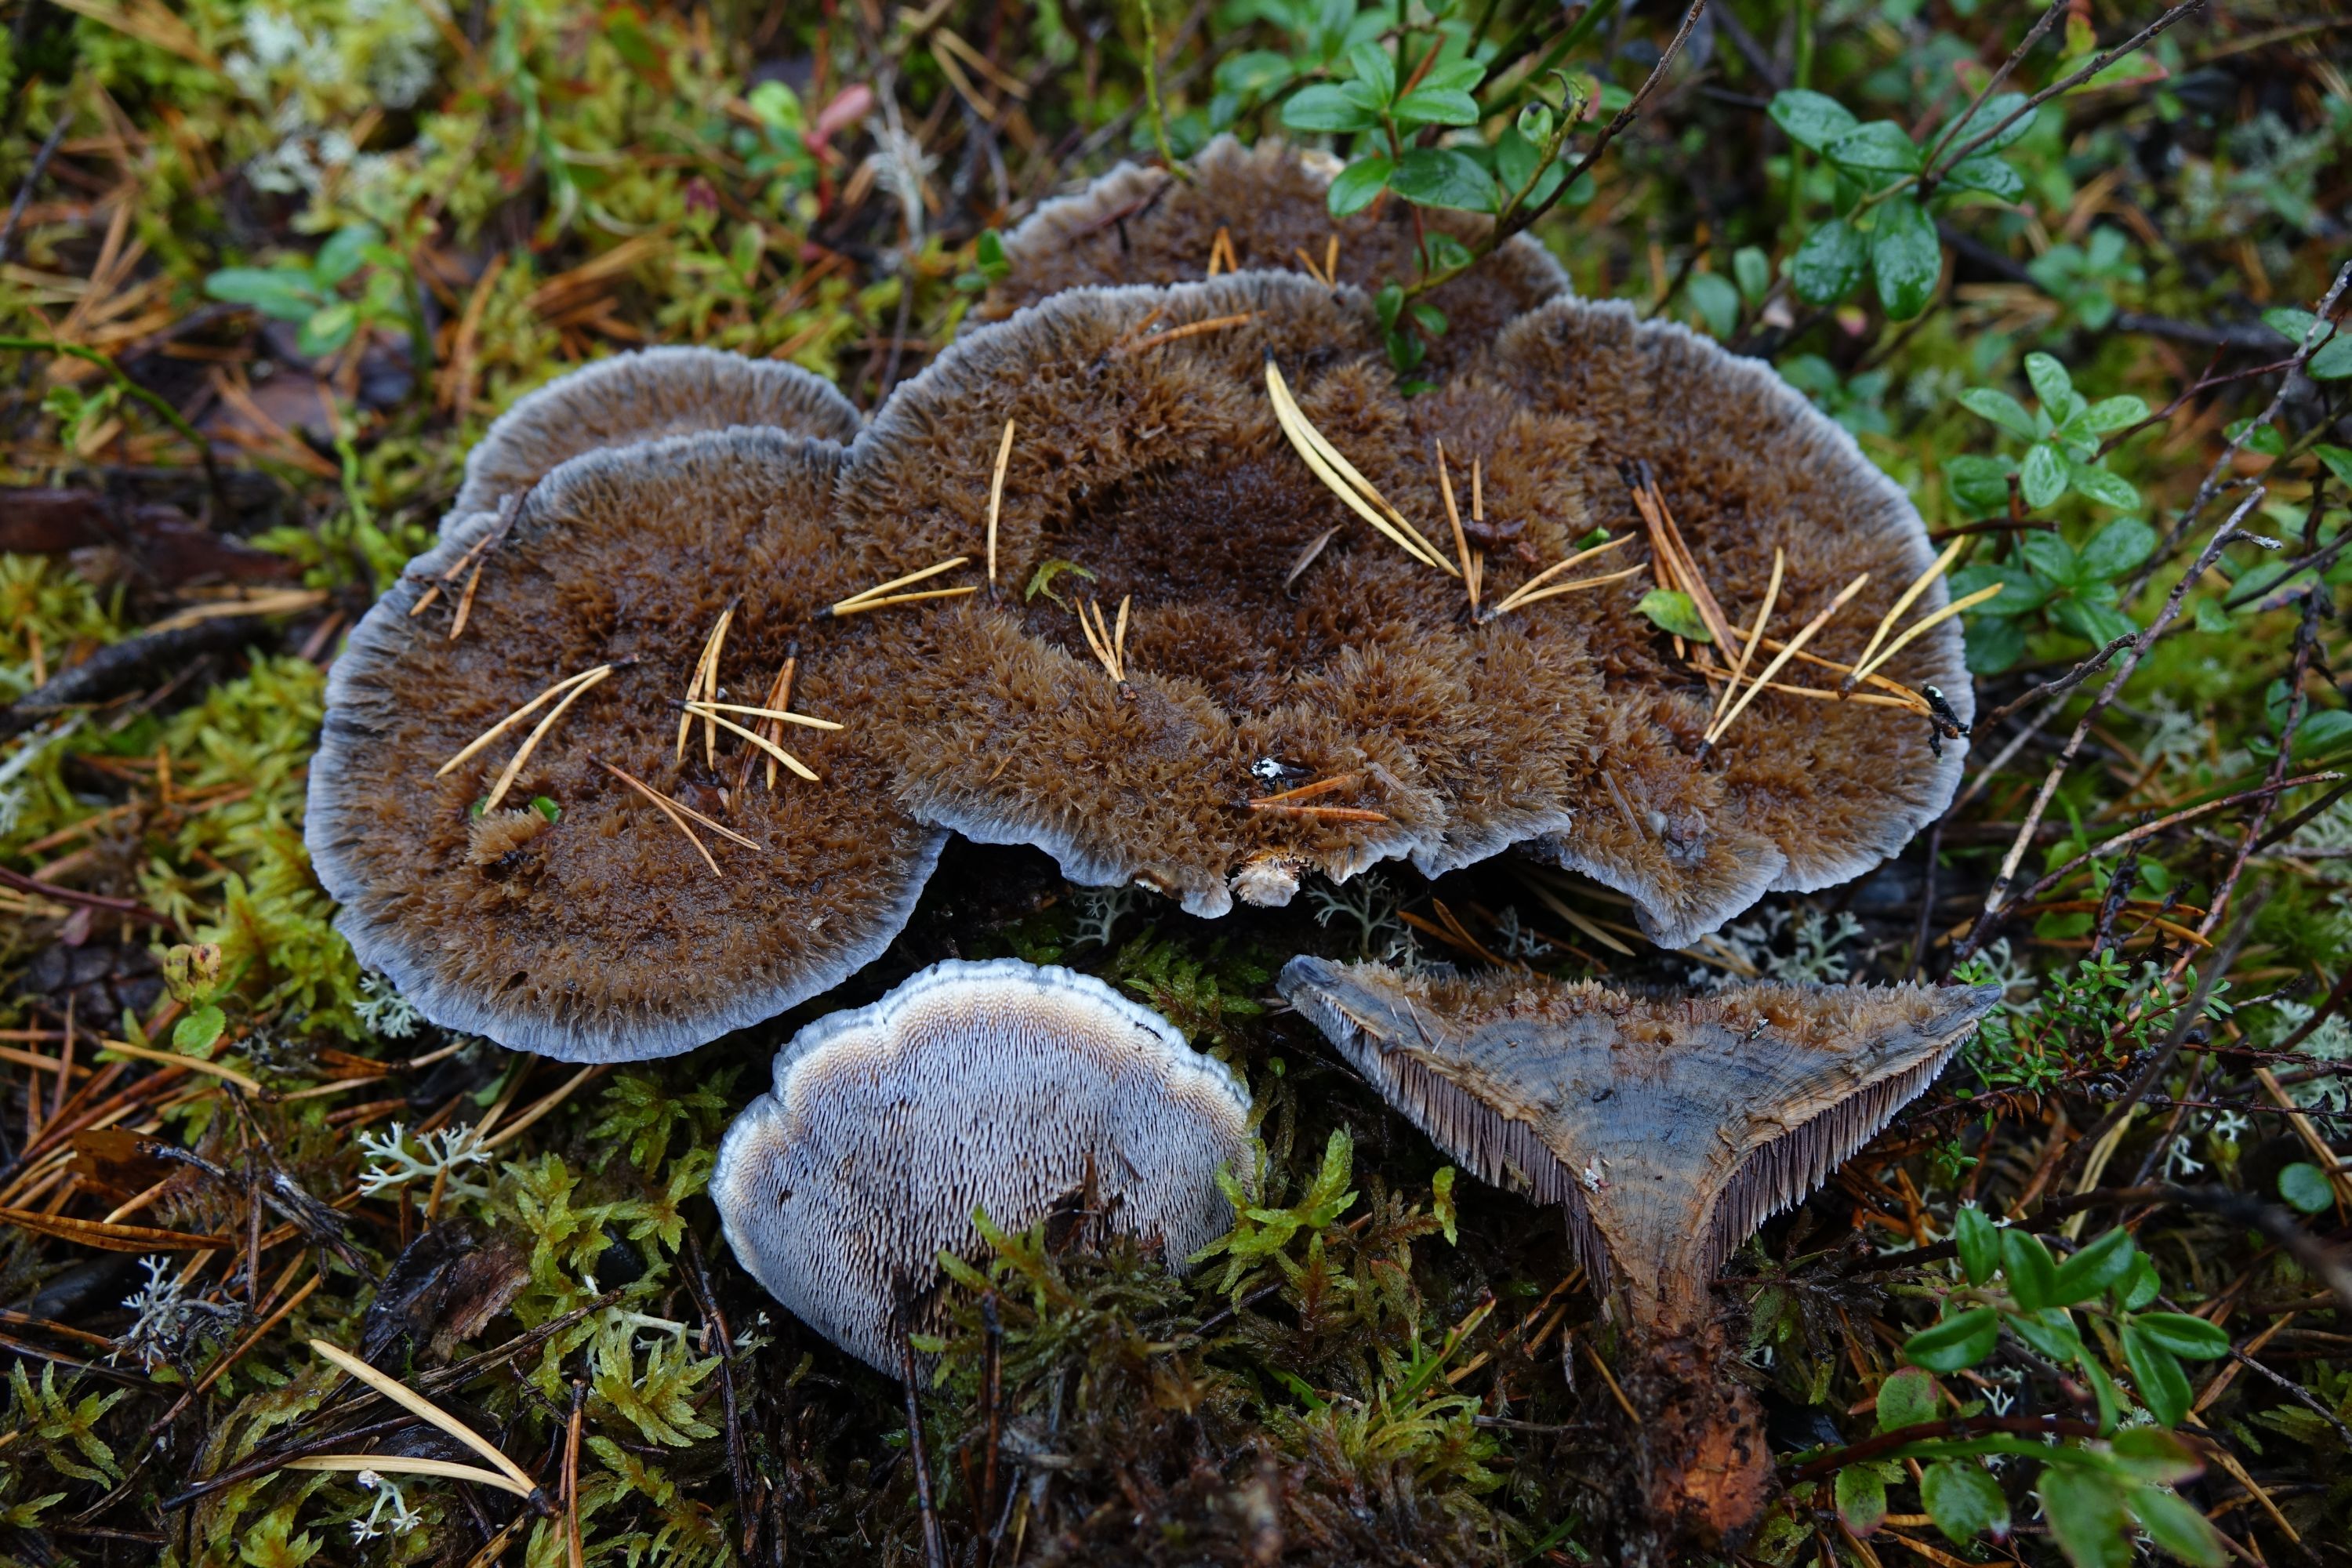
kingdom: Fungi
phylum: Basidiomycota
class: Agaricomycetes
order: Thelephorales
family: Bankeraceae
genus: Hydnellum
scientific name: Hydnellum caeruleum
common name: Blue corky spine fungus
